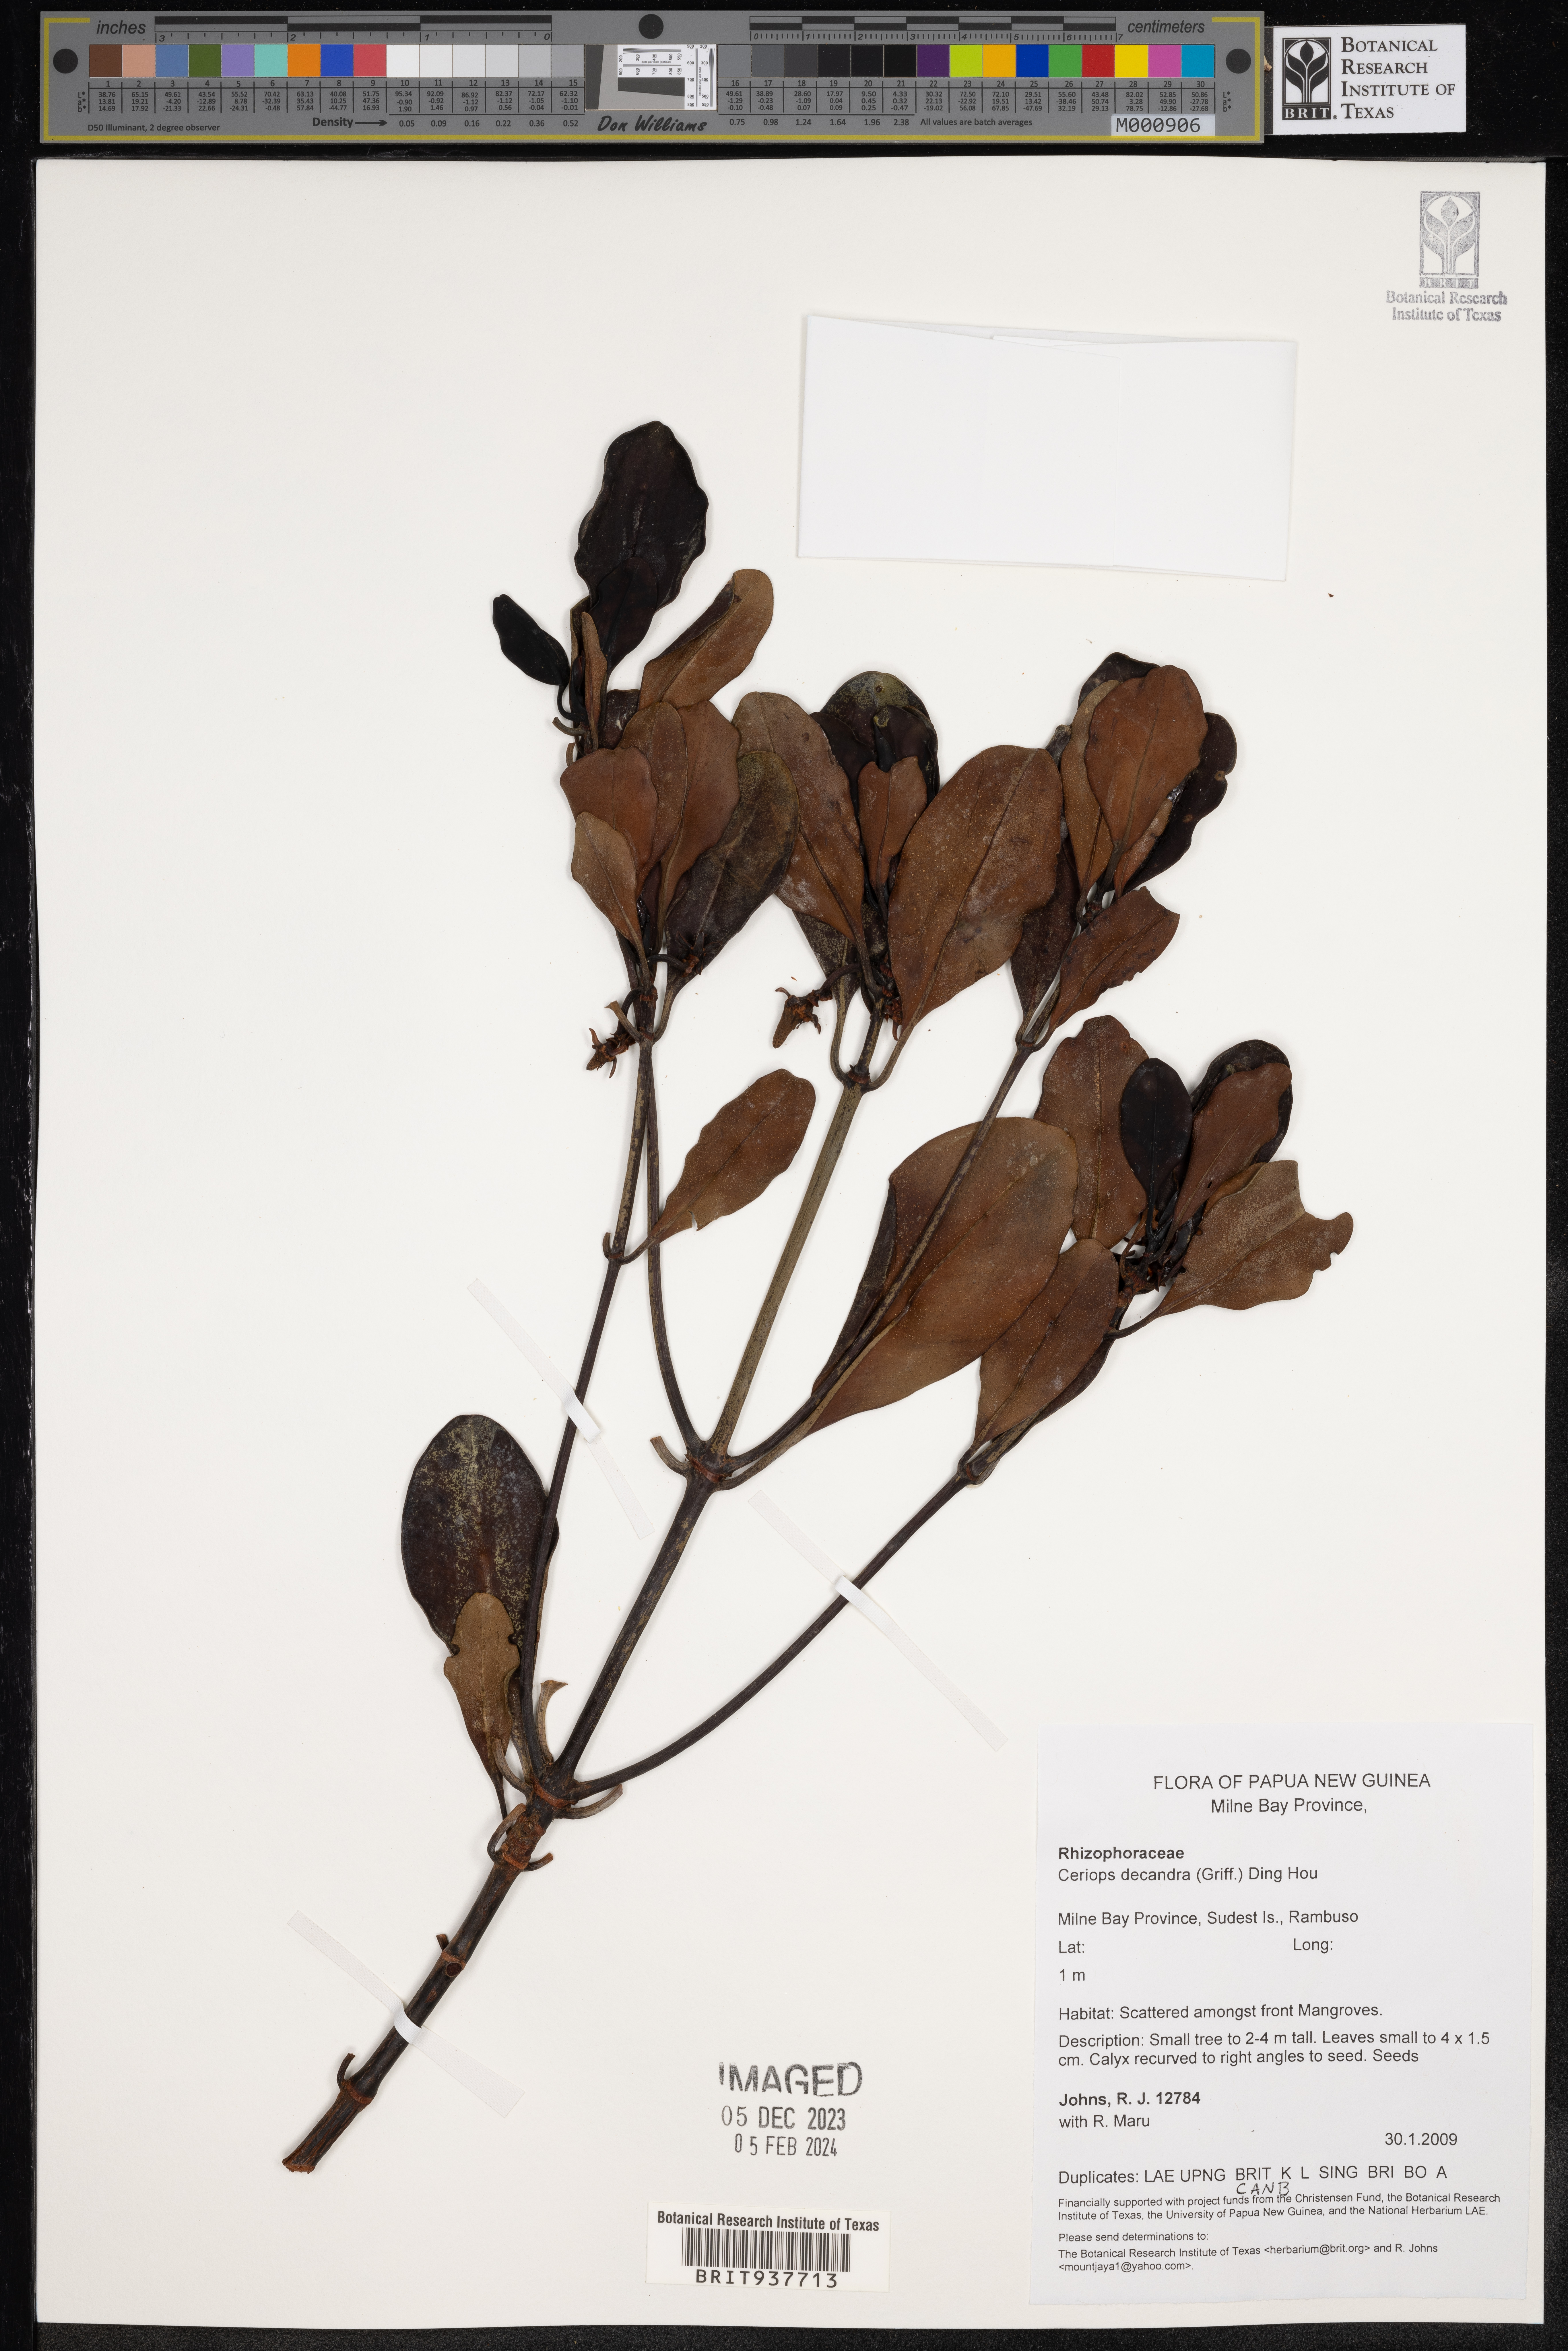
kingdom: Plantae
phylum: Tracheophyta
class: Magnoliopsida
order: Malpighiales
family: Rhizophoraceae
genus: Ceriops
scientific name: Ceriops decandra
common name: Flat-leaf spurred mangrove
